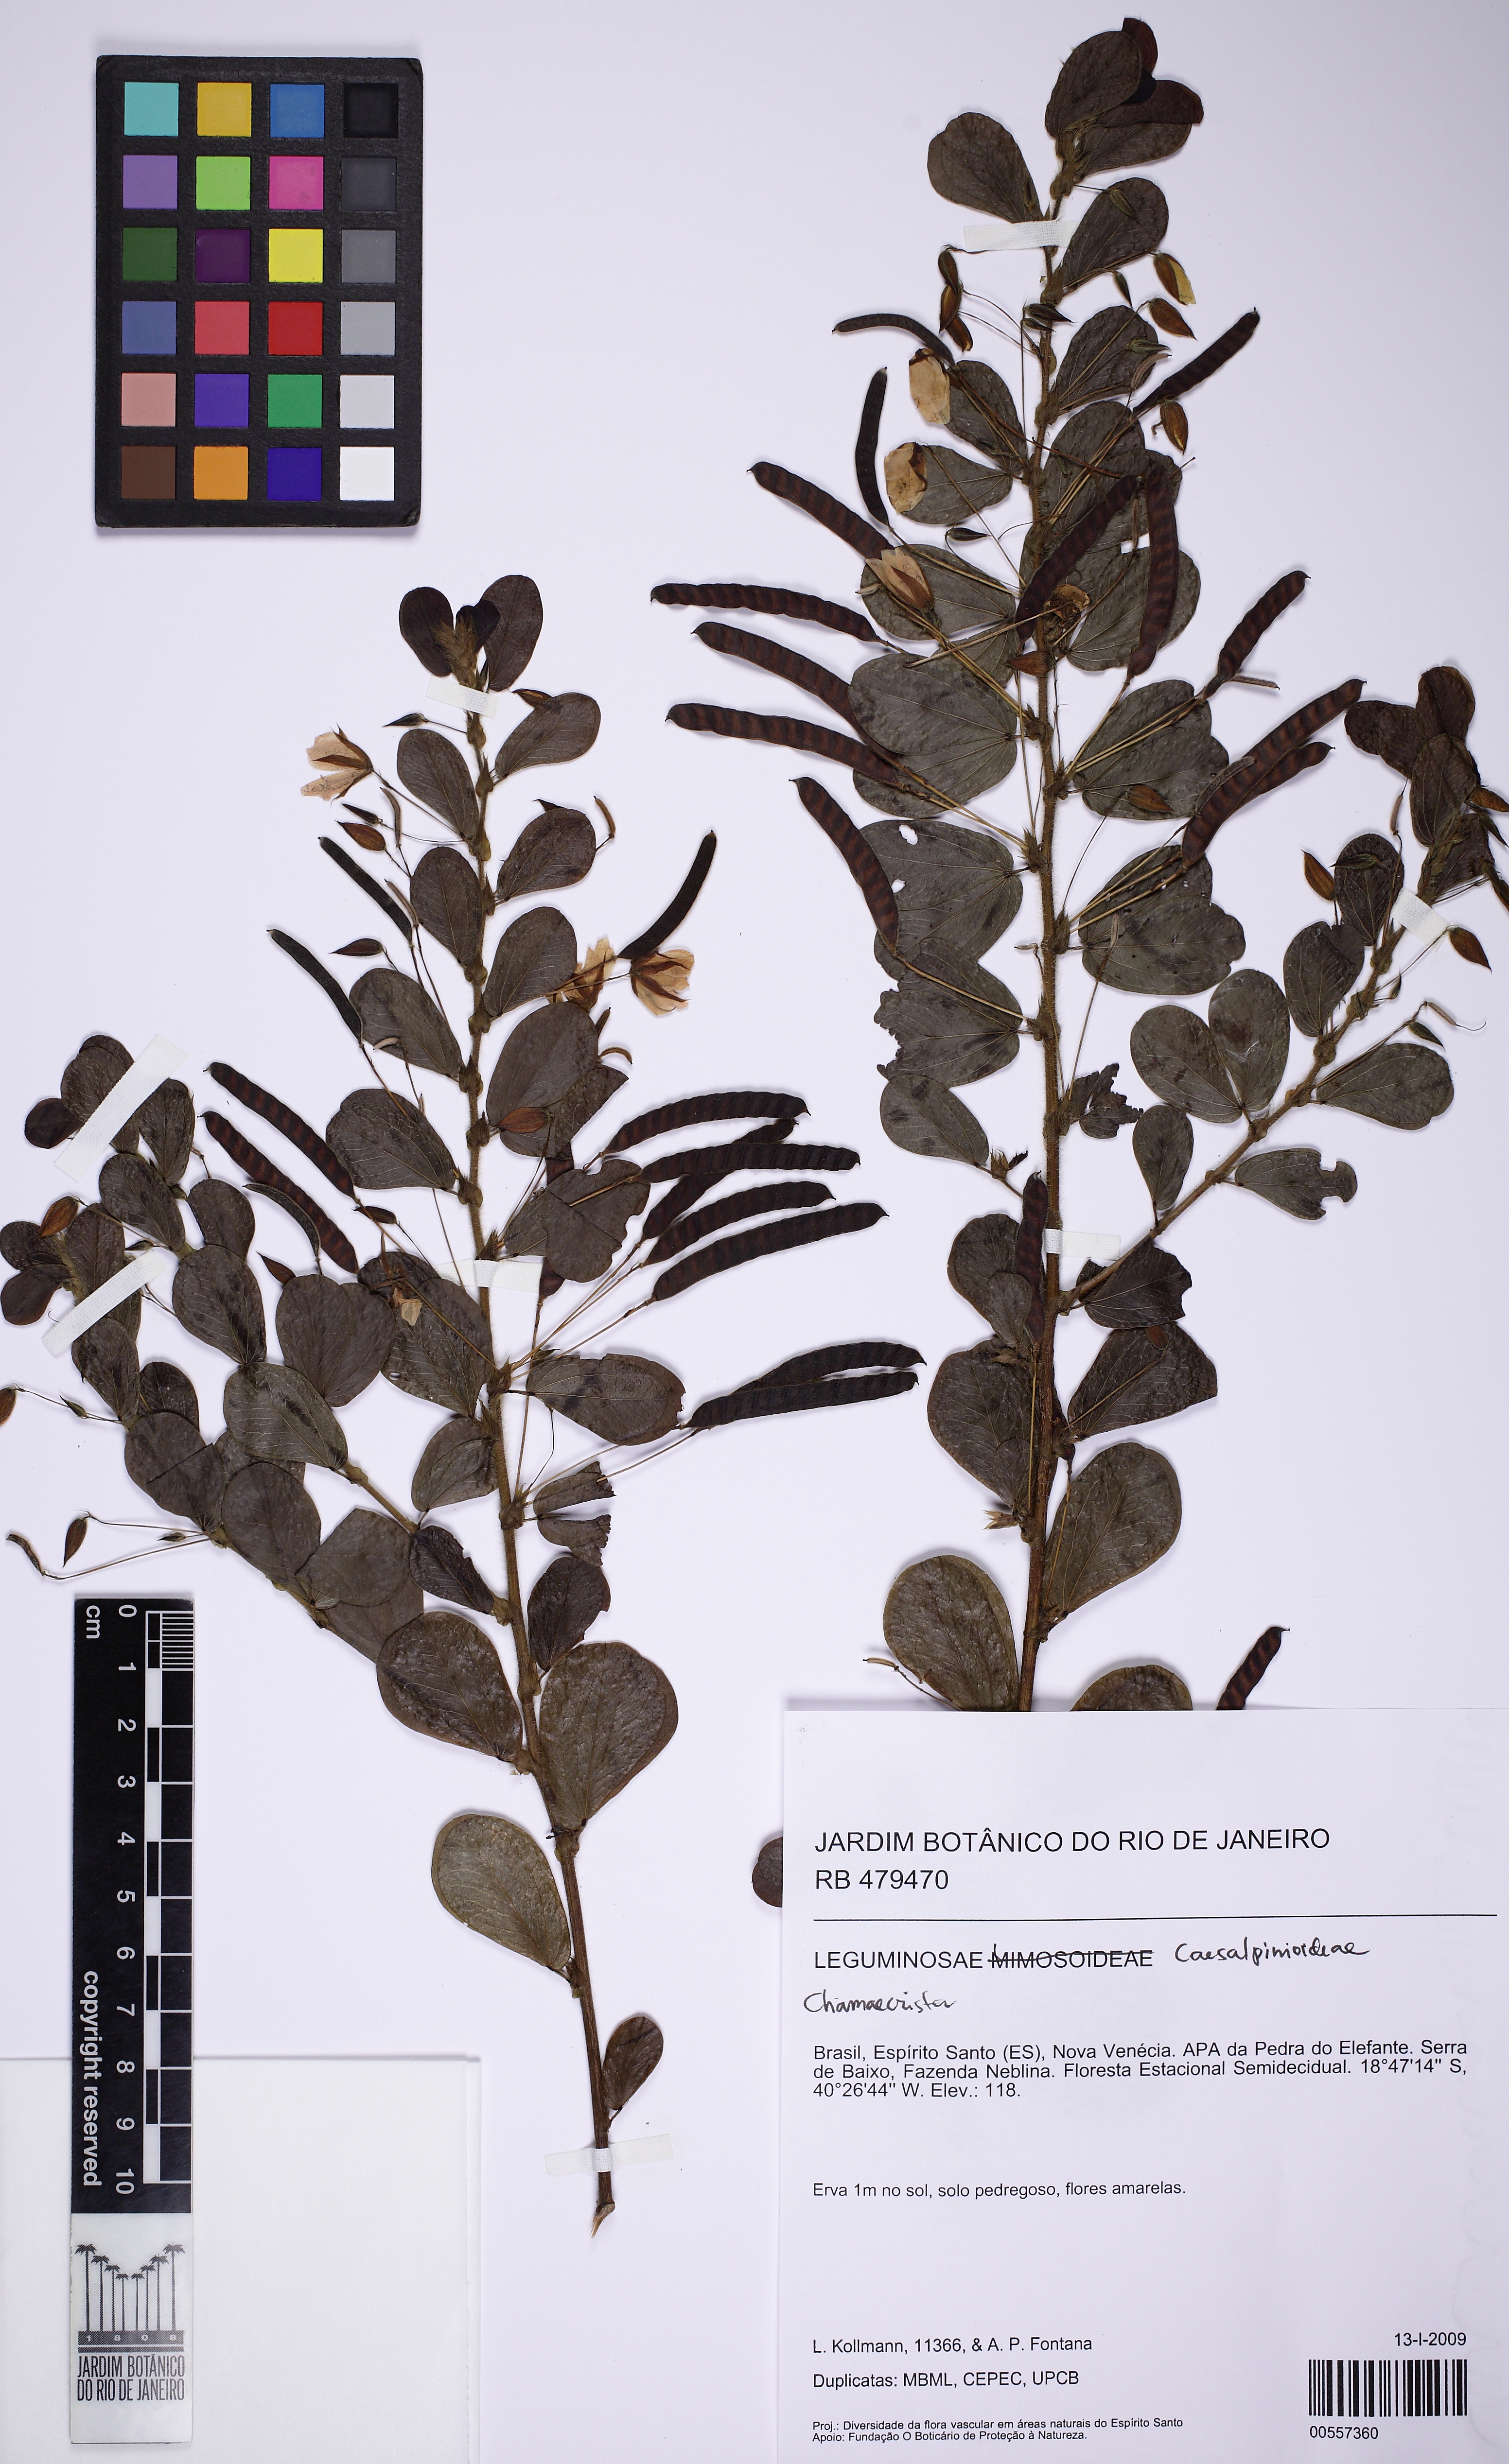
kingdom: Plantae
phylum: Tracheophyta
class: Magnoliopsida
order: Fabales
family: Fabaceae
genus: Chamaecrista
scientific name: Chamaecrista rotundifolia
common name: Round-leaf cassia
